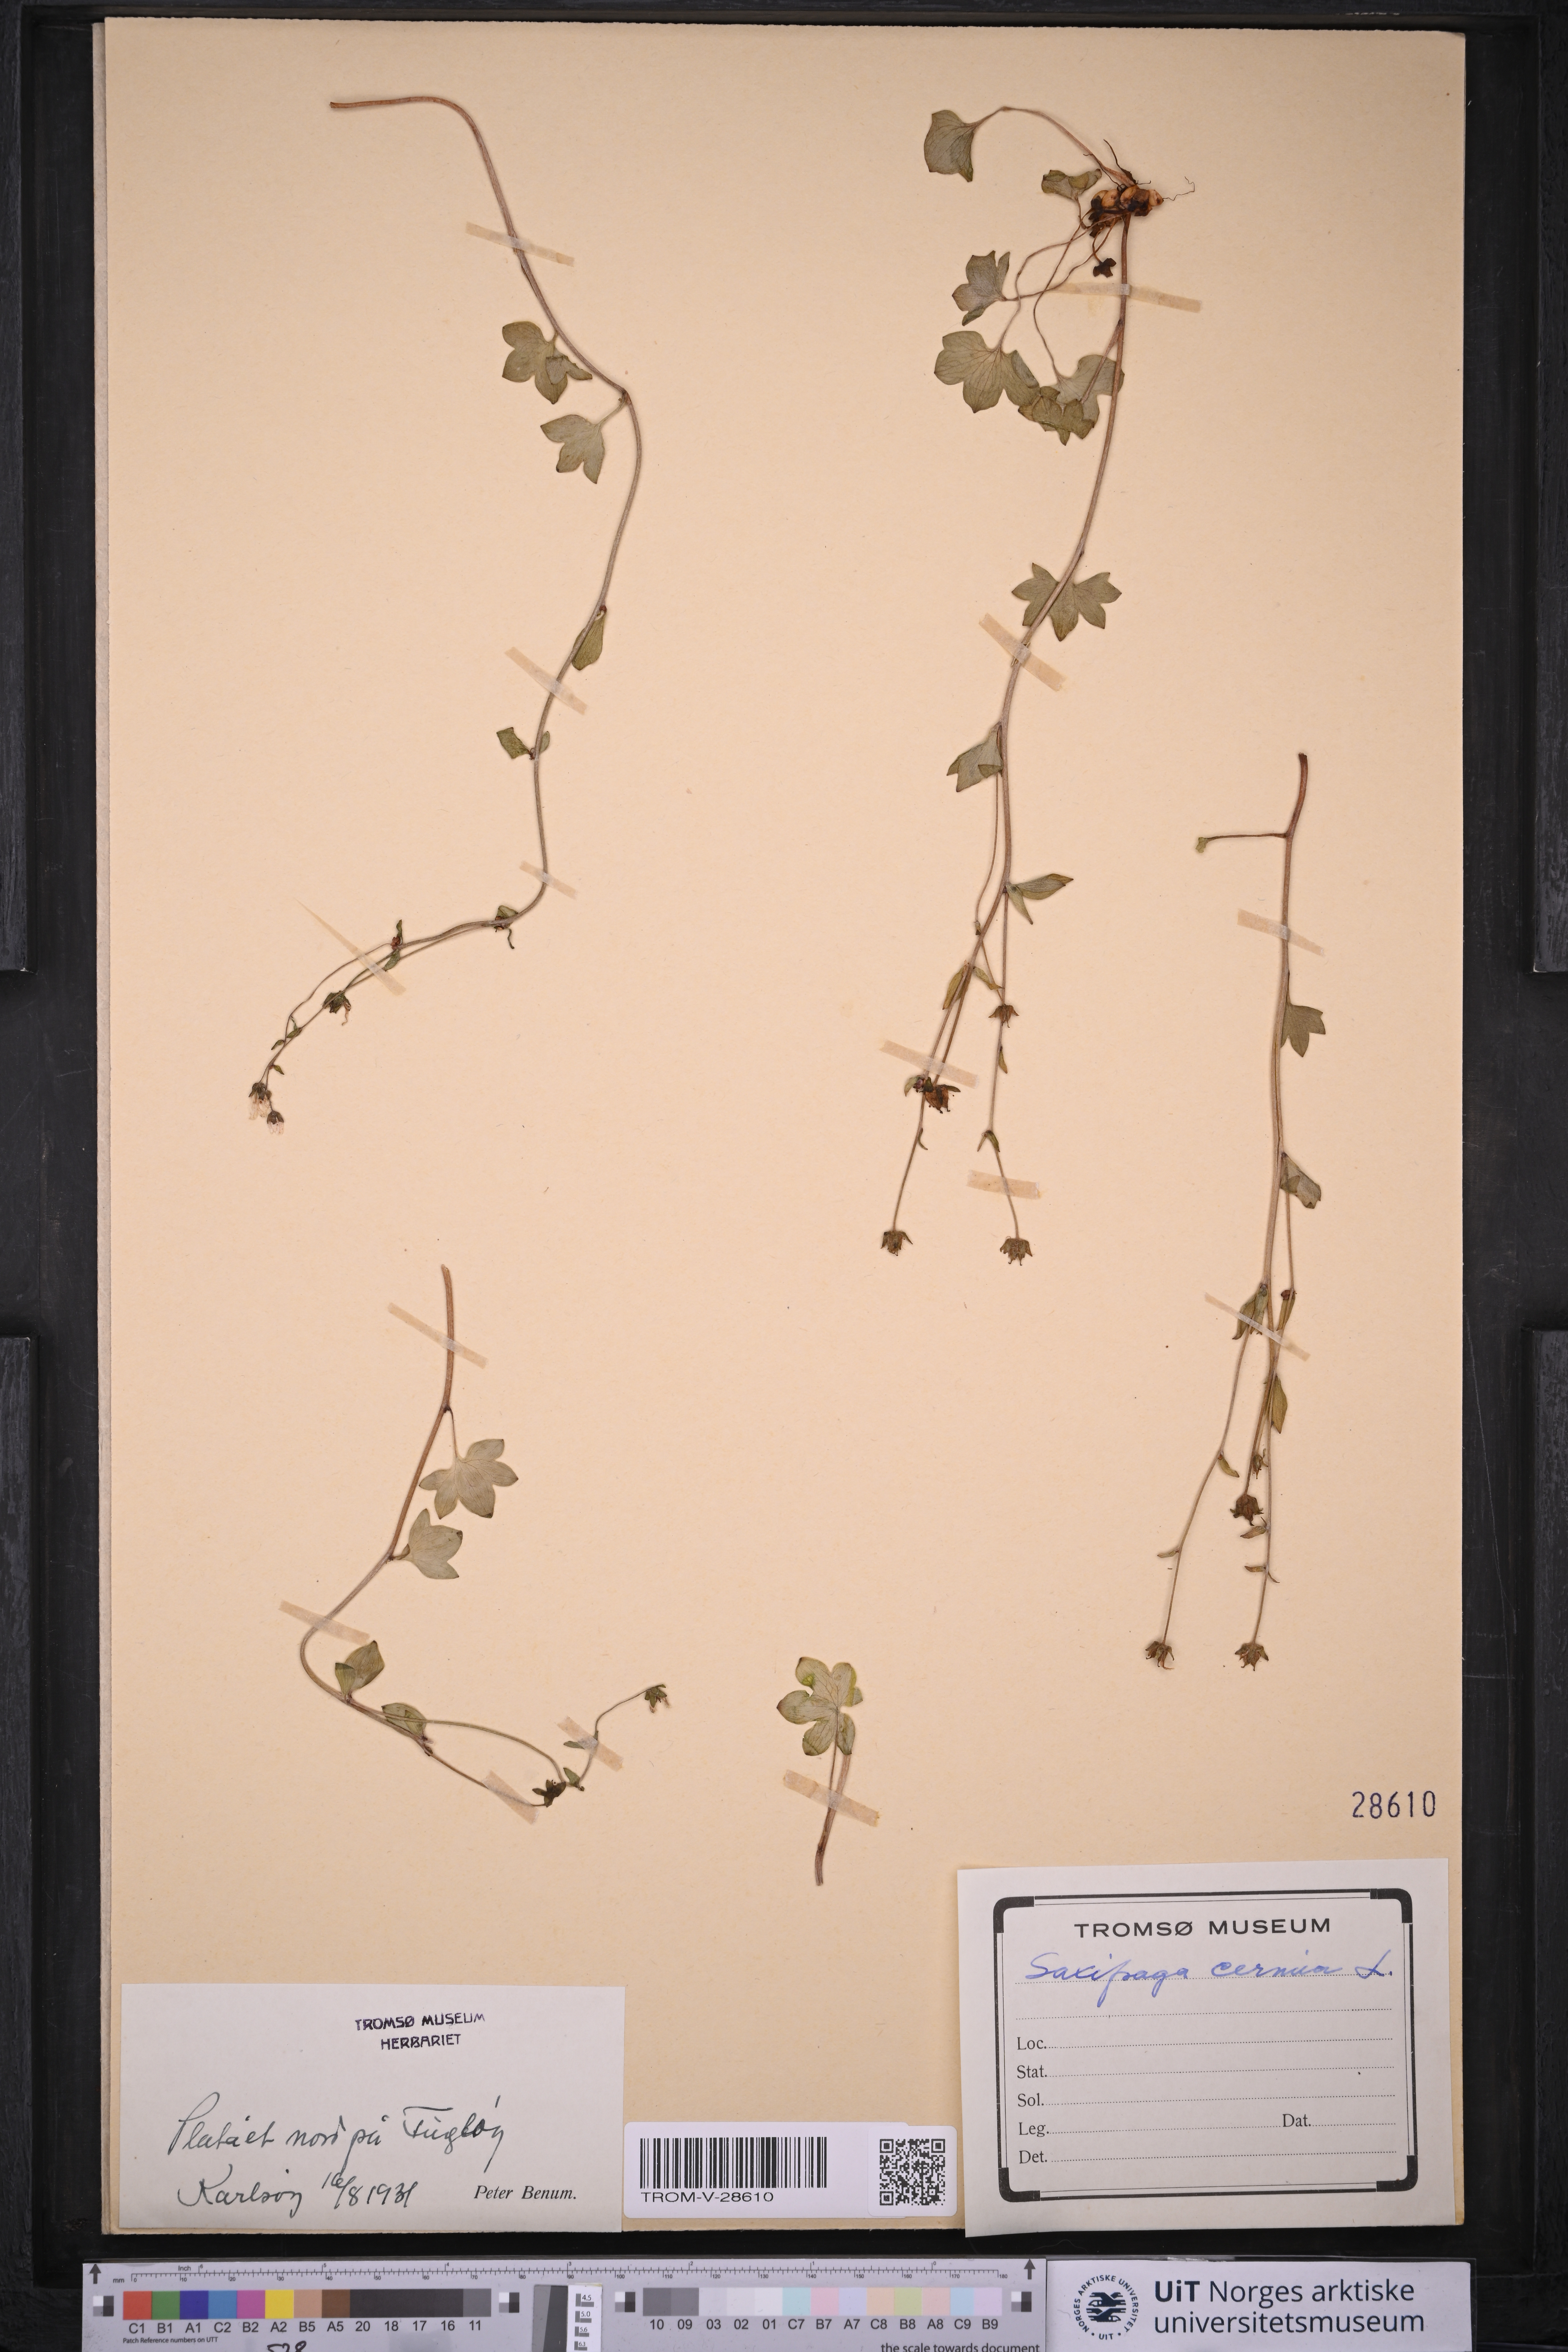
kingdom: Plantae
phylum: Tracheophyta
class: Magnoliopsida
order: Saxifragales
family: Saxifragaceae
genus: Saxifraga
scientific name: Saxifraga cernua
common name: Drooping saxifrage
